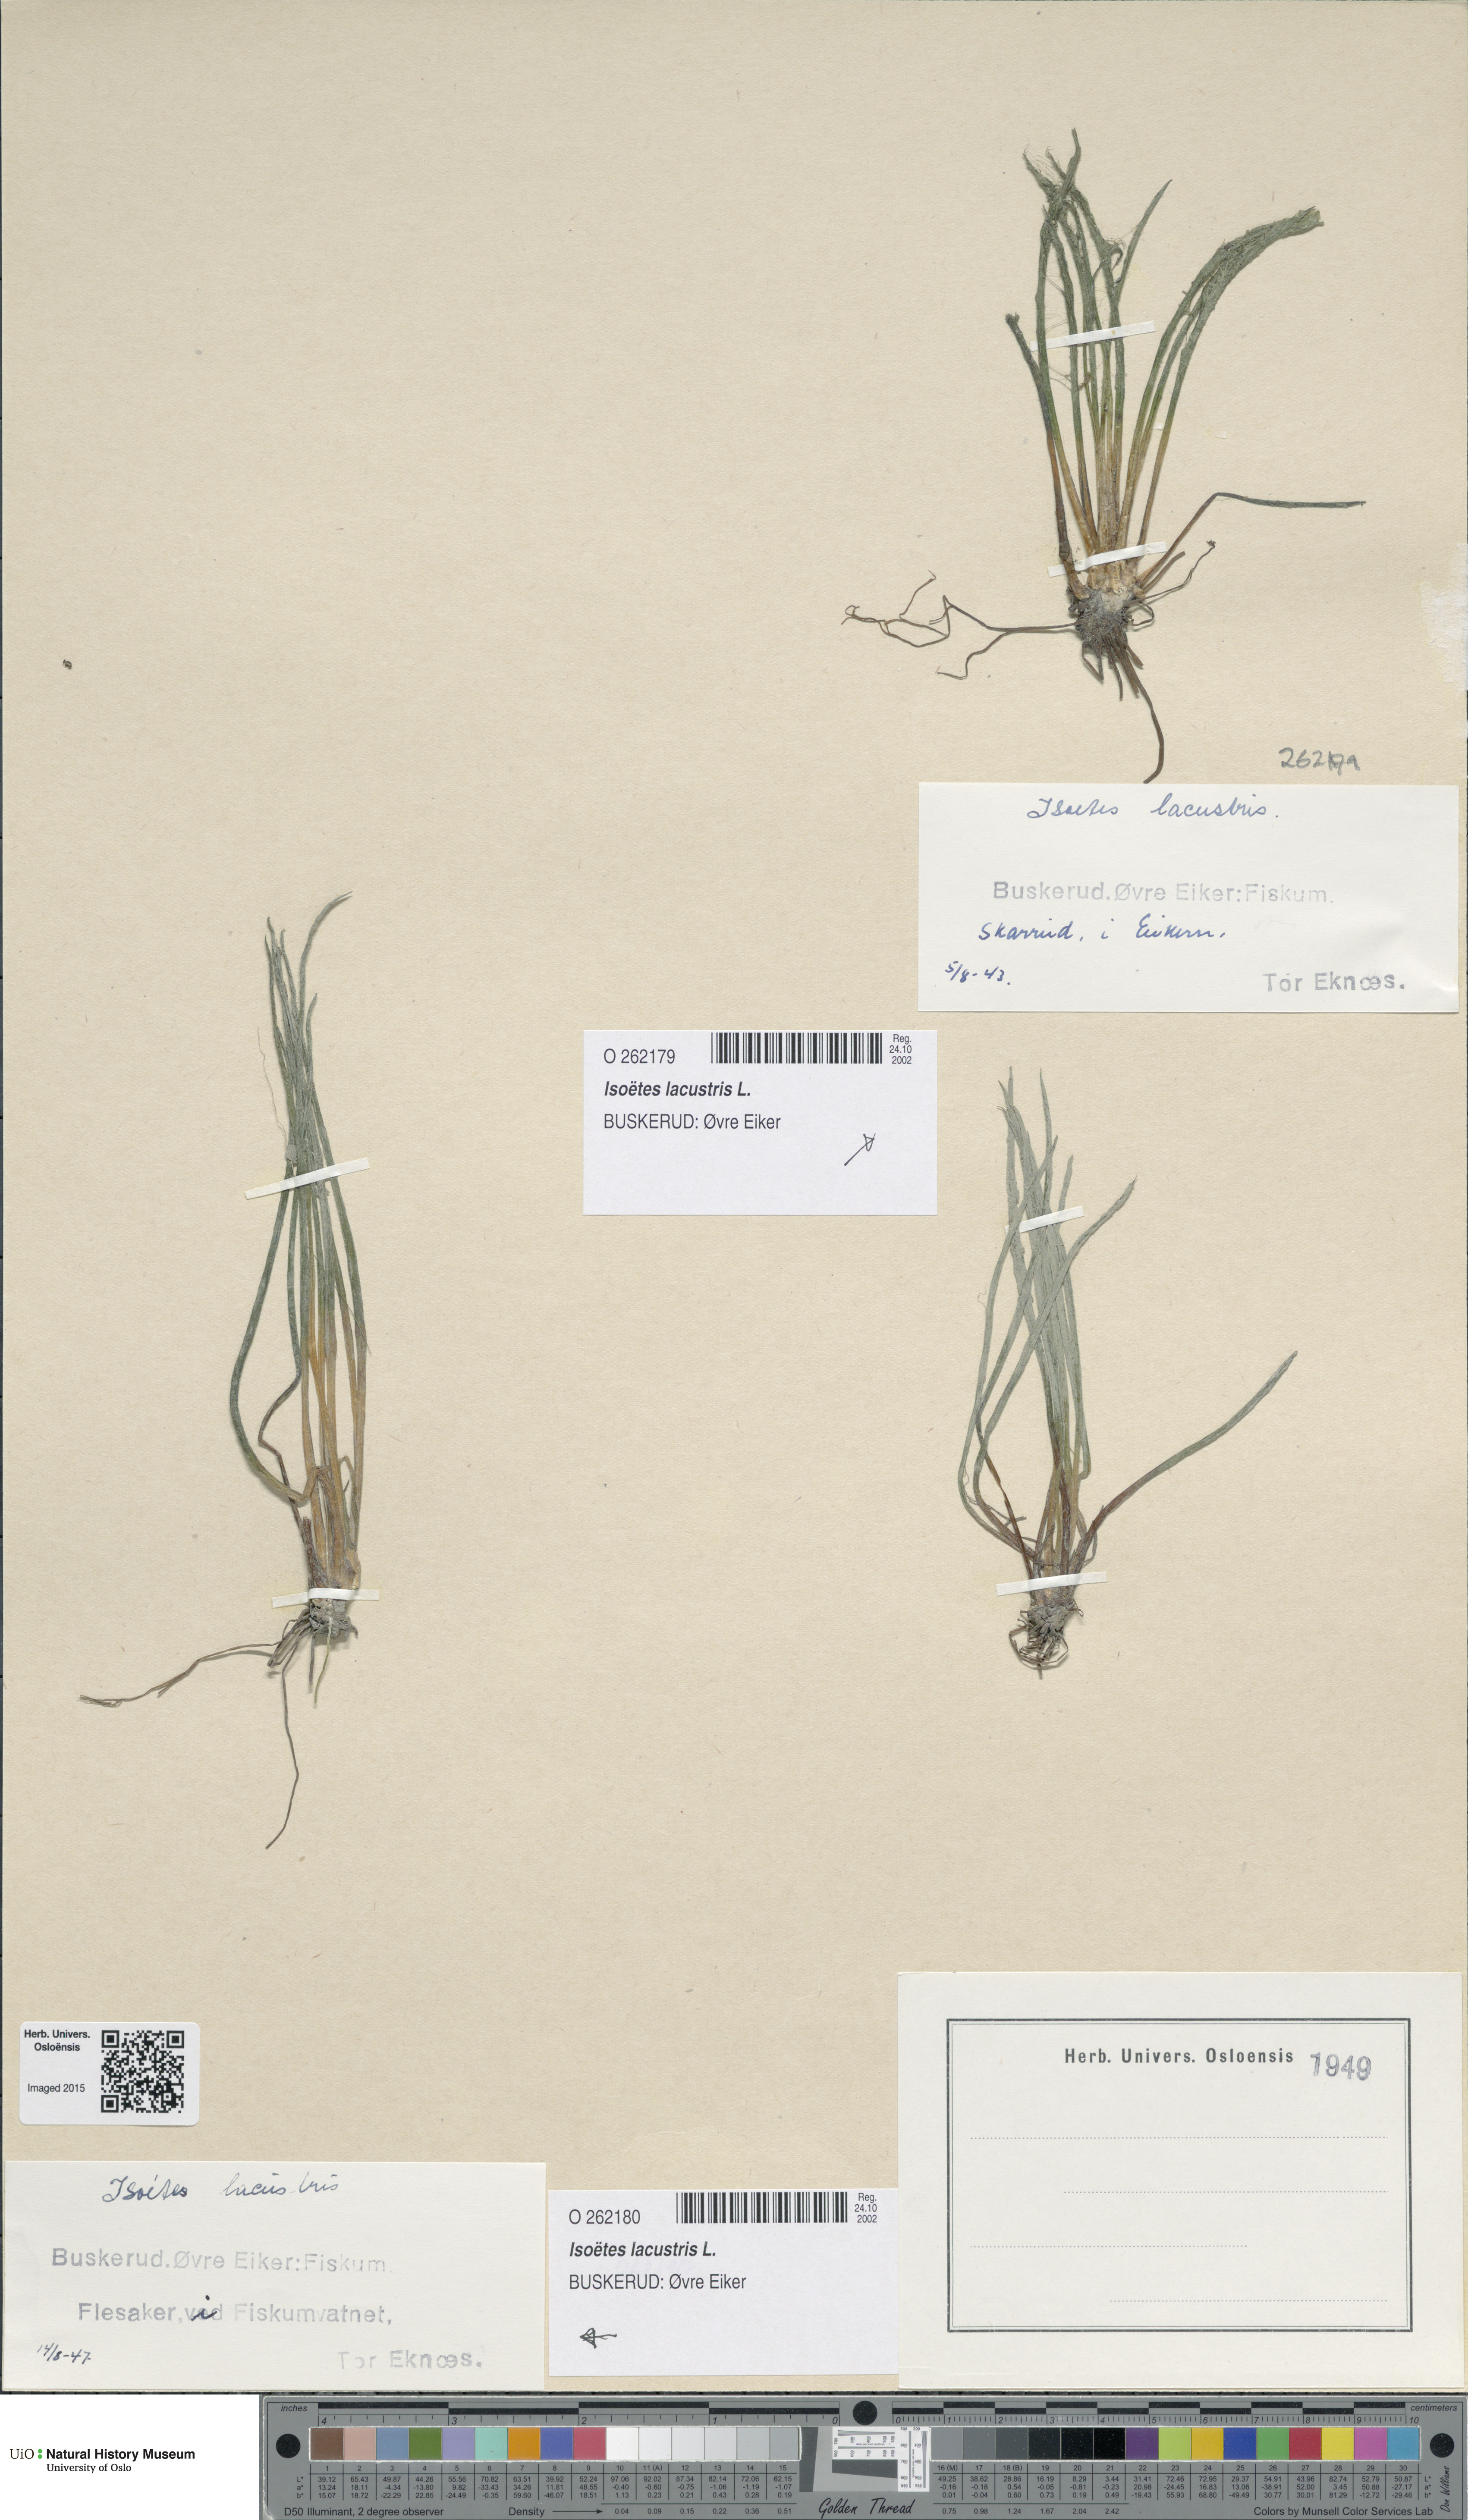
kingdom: Plantae
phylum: Tracheophyta
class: Lycopodiopsida
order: Isoetales
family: Isoetaceae
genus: Isoetes
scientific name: Isoetes lacustris
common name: Common quillwort
